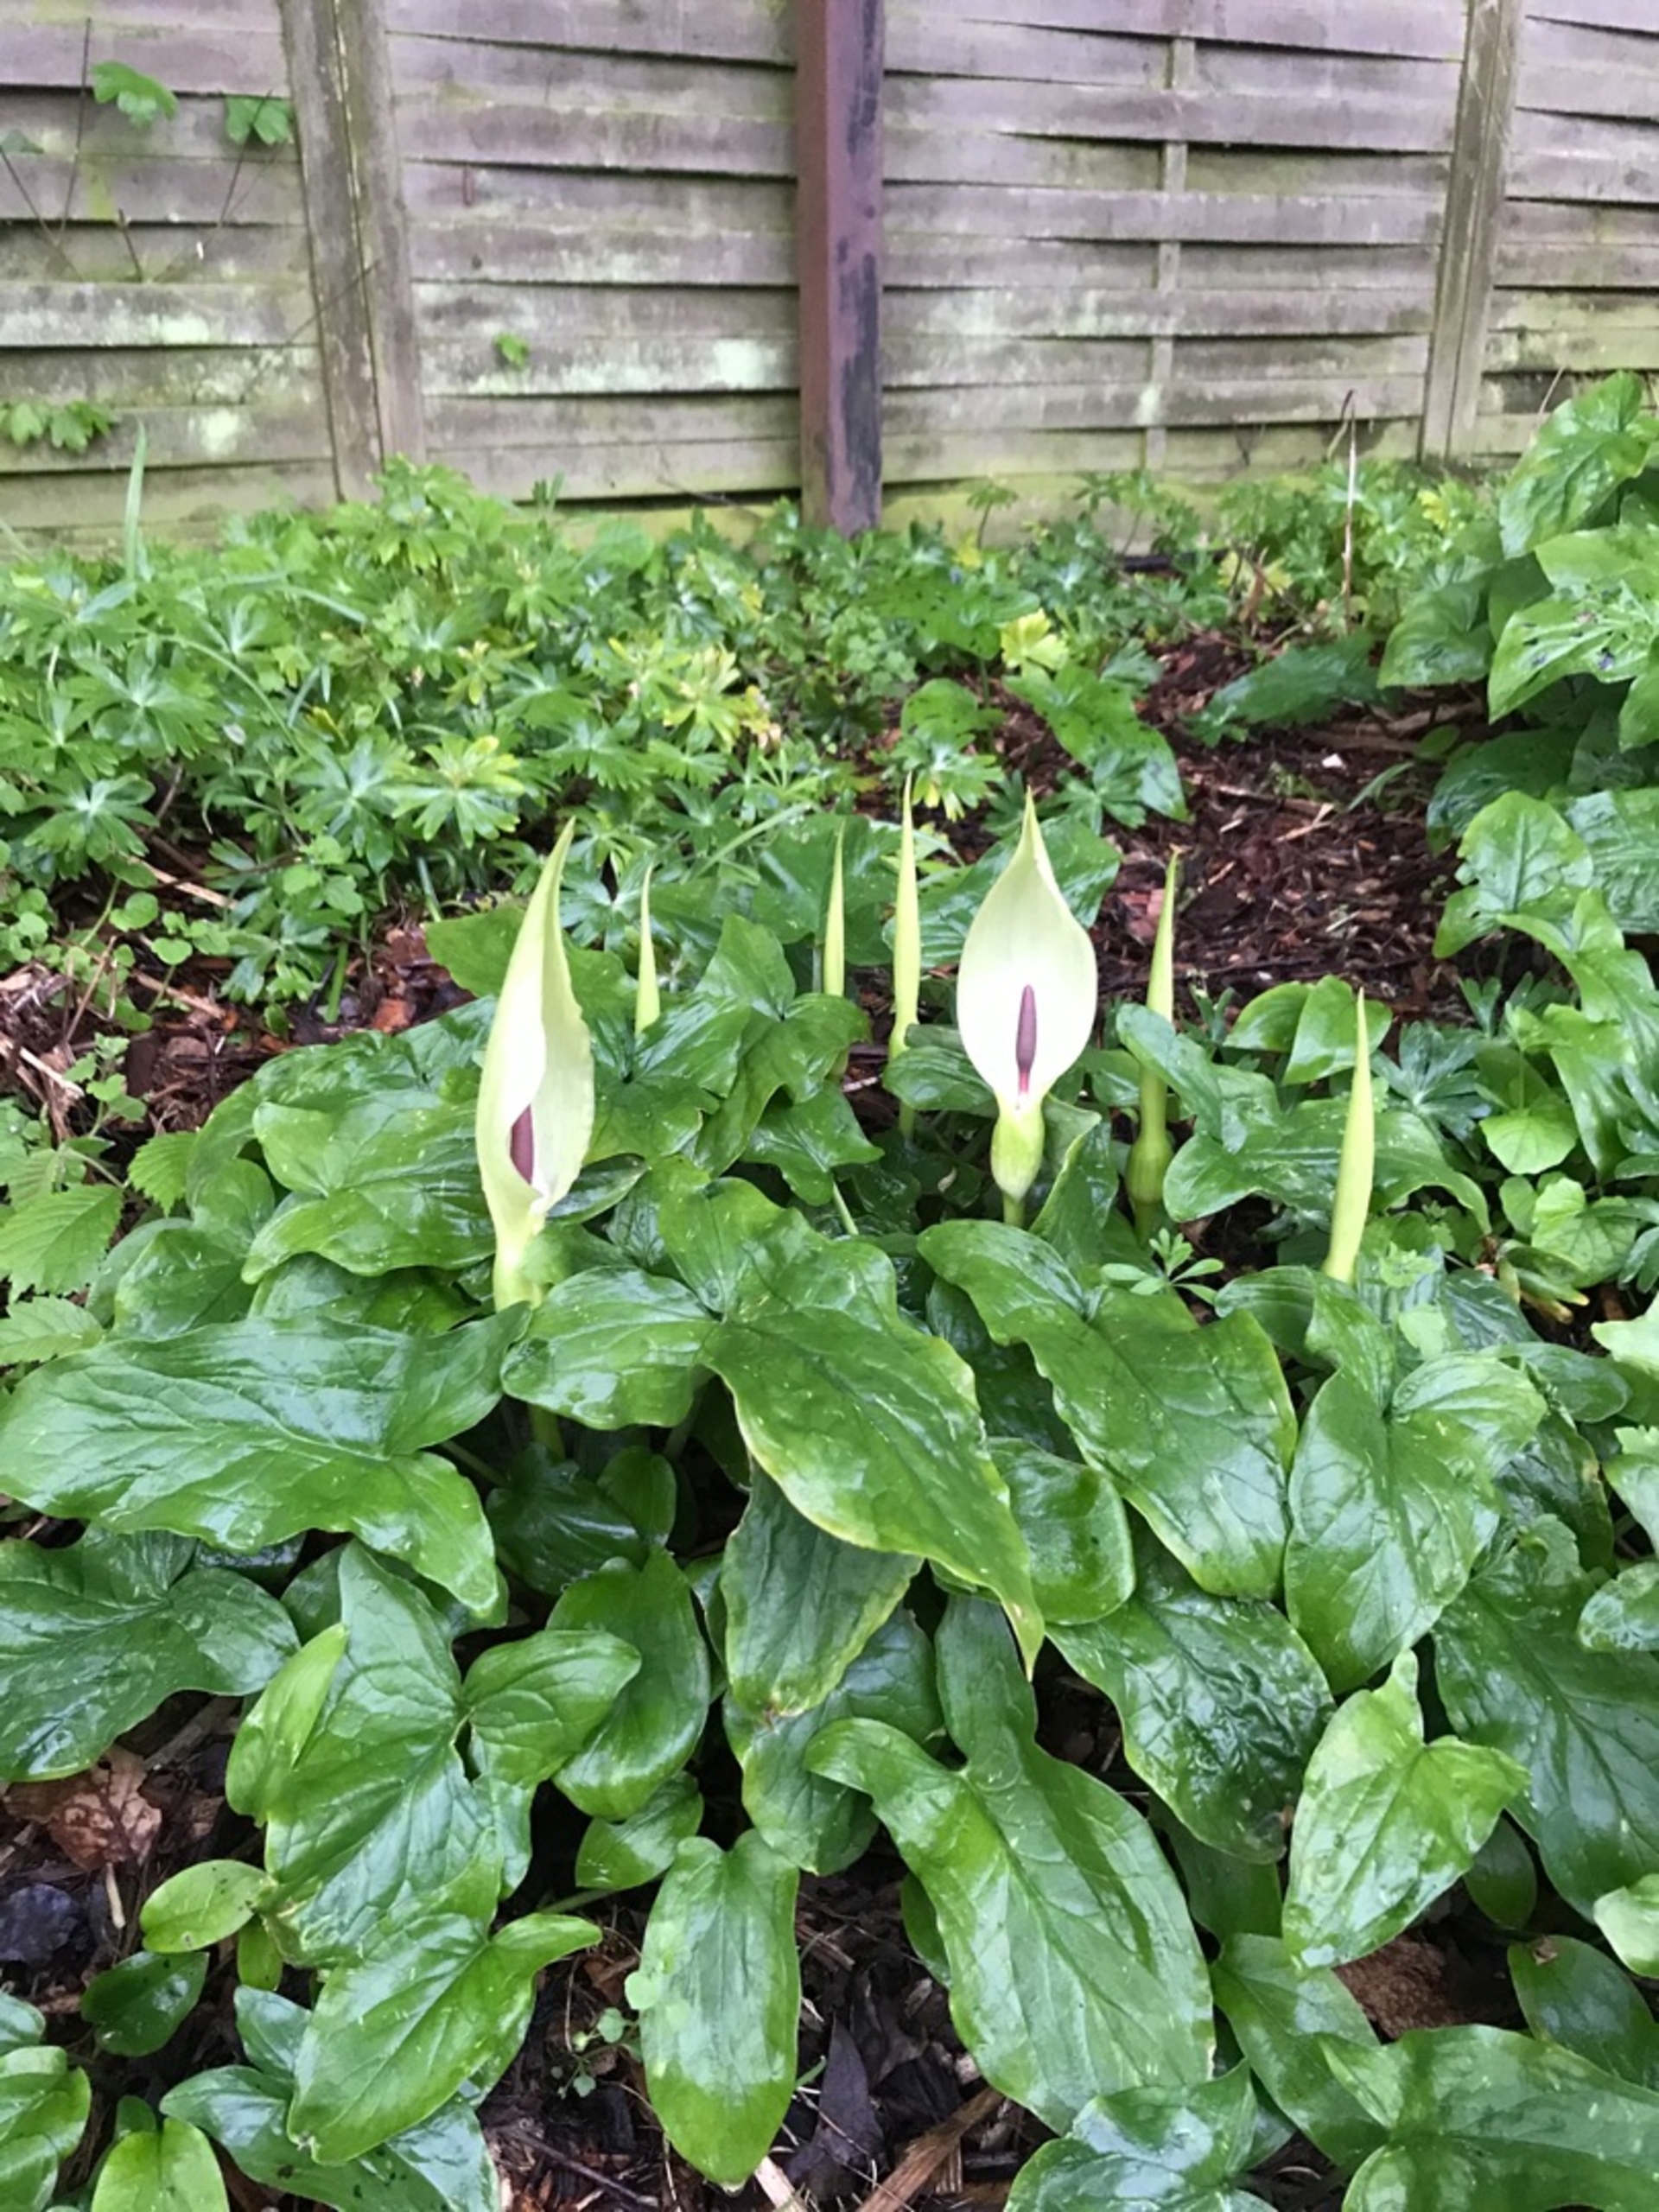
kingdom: Plantae
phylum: Tracheophyta
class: Liliopsida
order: Alismatales
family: Araceae
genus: Arum
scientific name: Arum maculatum
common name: Plettet arum
